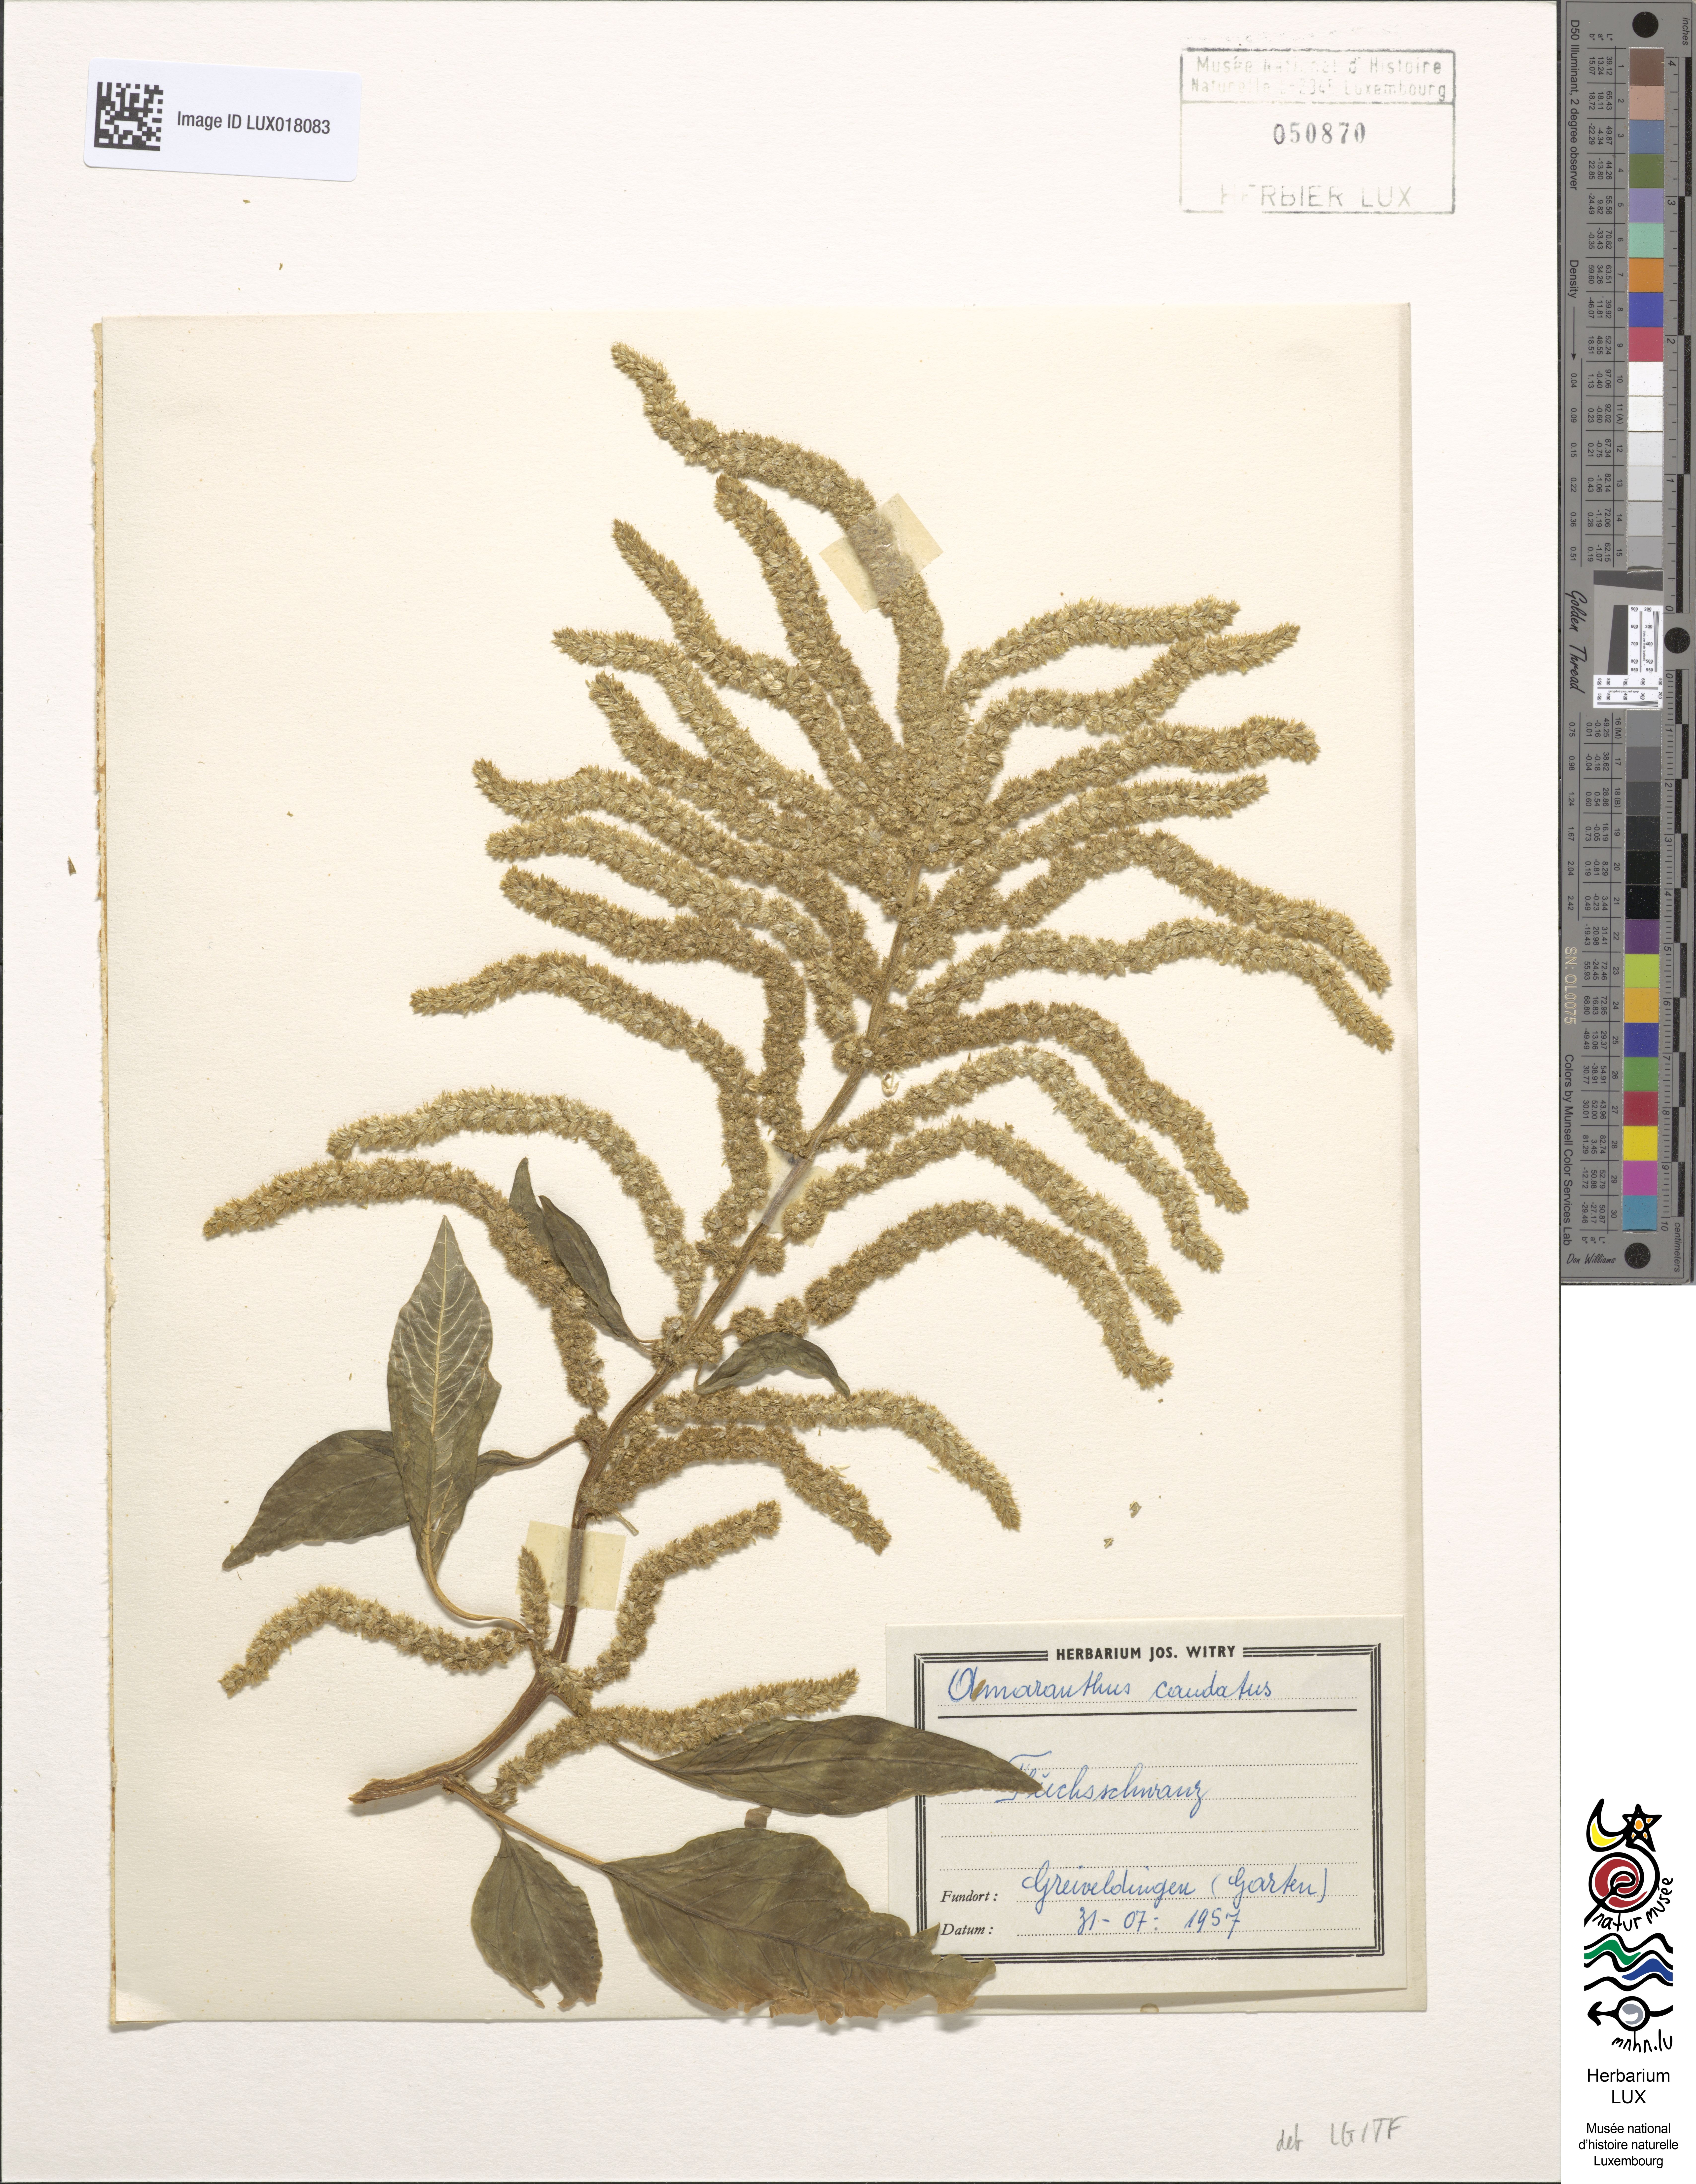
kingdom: Plantae
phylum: Tracheophyta
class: Magnoliopsida
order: Caryophyllales
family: Amaranthaceae
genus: Amaranthus
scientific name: Amaranthus caudatus
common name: Love-lies-bleeding
